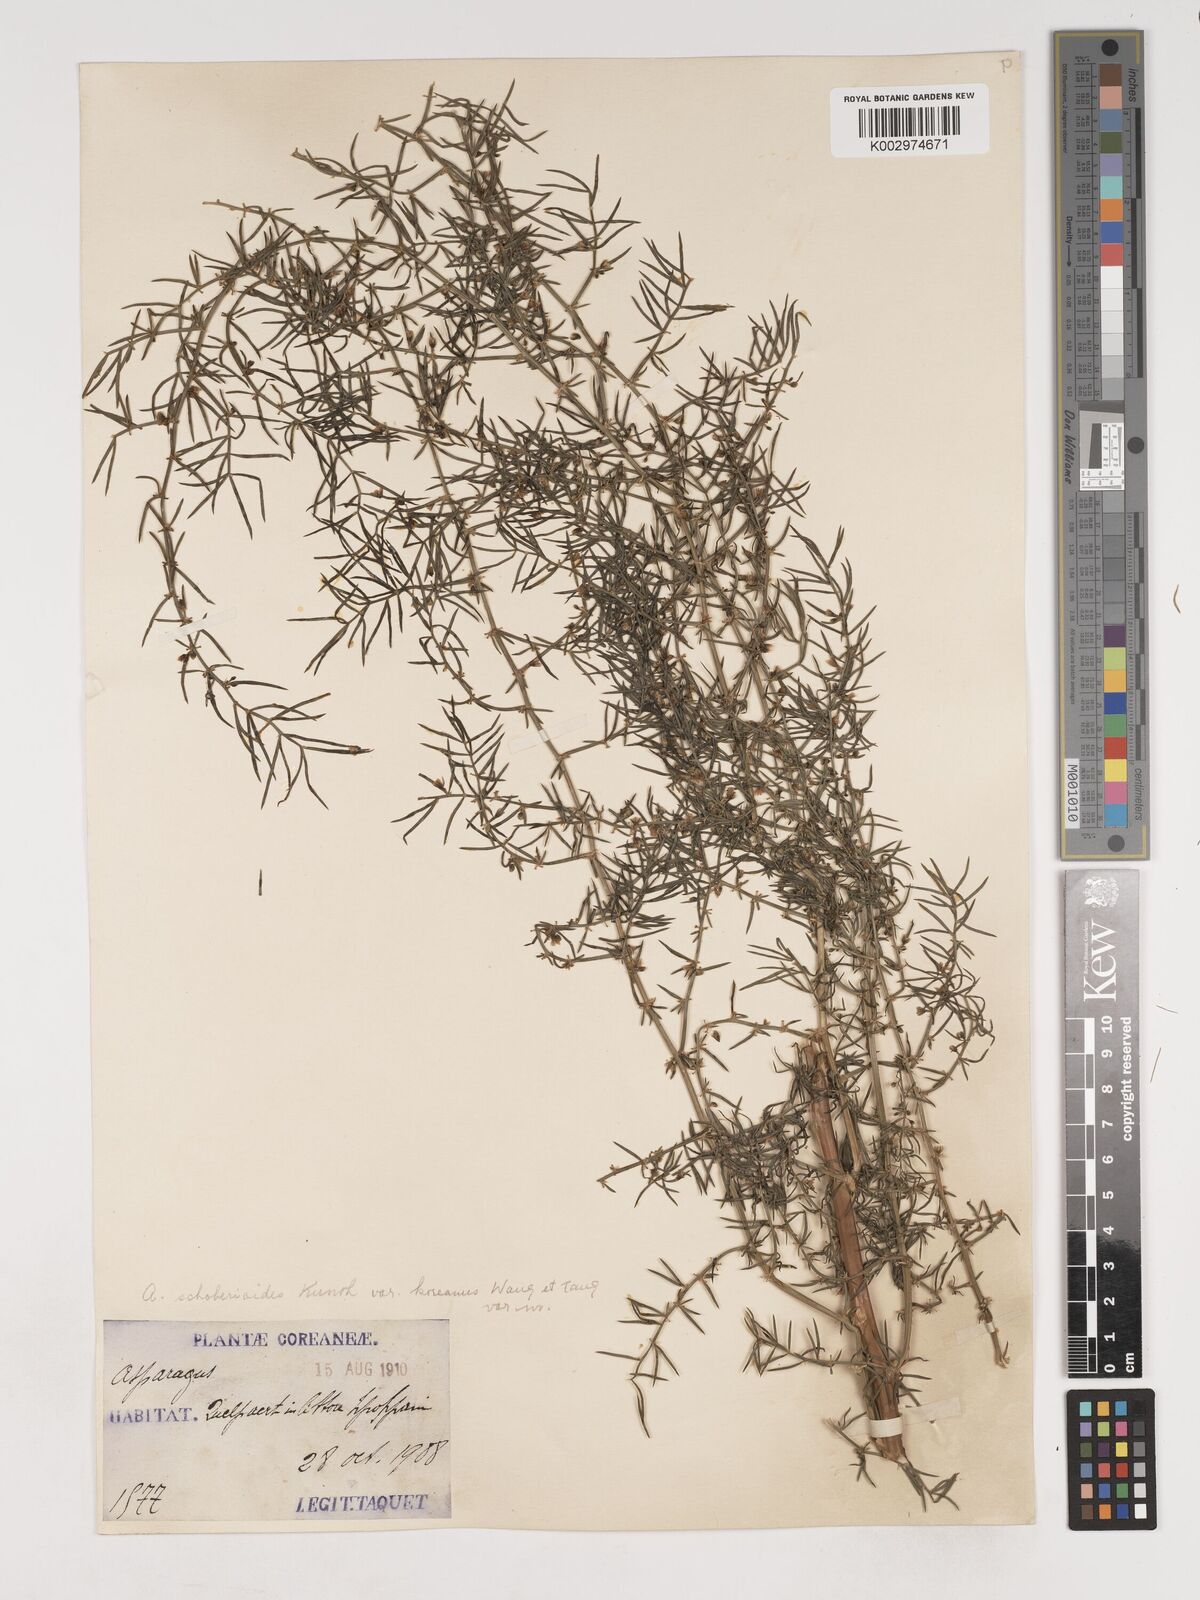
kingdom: Plantae
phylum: Tracheophyta
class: Liliopsida
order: Asparagales
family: Asparagaceae
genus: Asparagus
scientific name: Asparagus schoberioides
